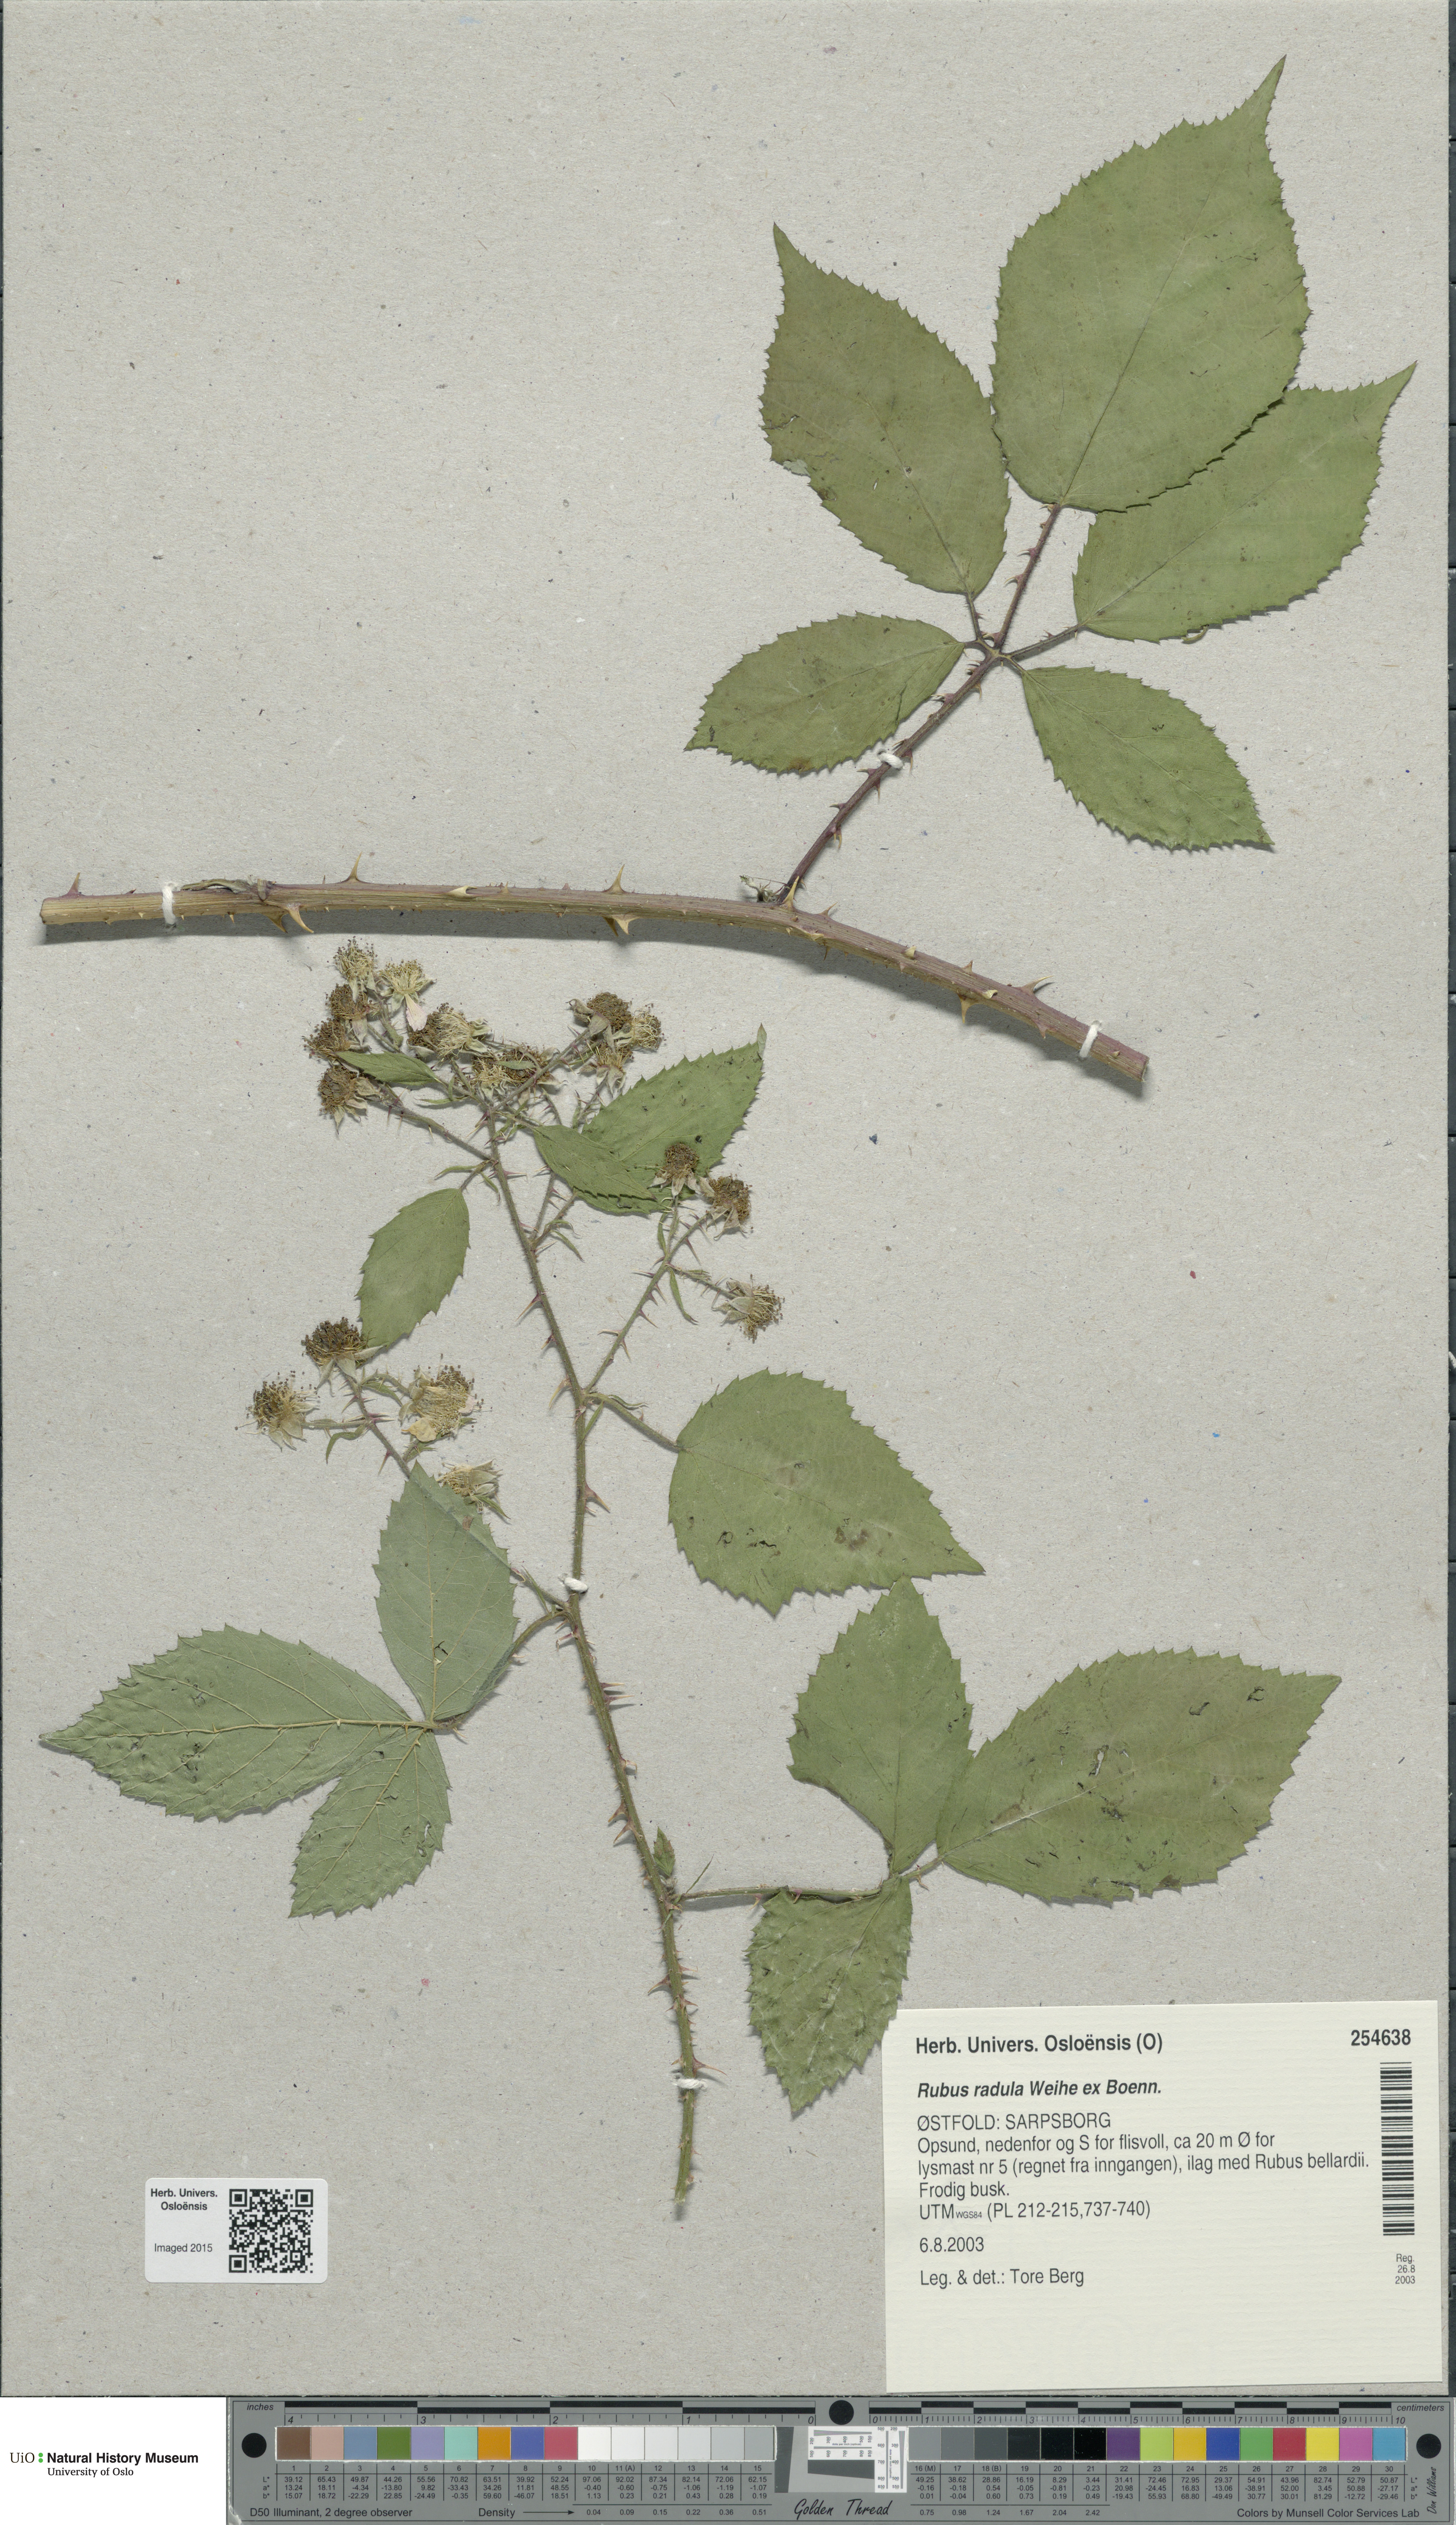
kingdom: Plantae
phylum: Tracheophyta
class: Magnoliopsida
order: Rosales
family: Rosaceae
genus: Rubus
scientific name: Rubus radula
